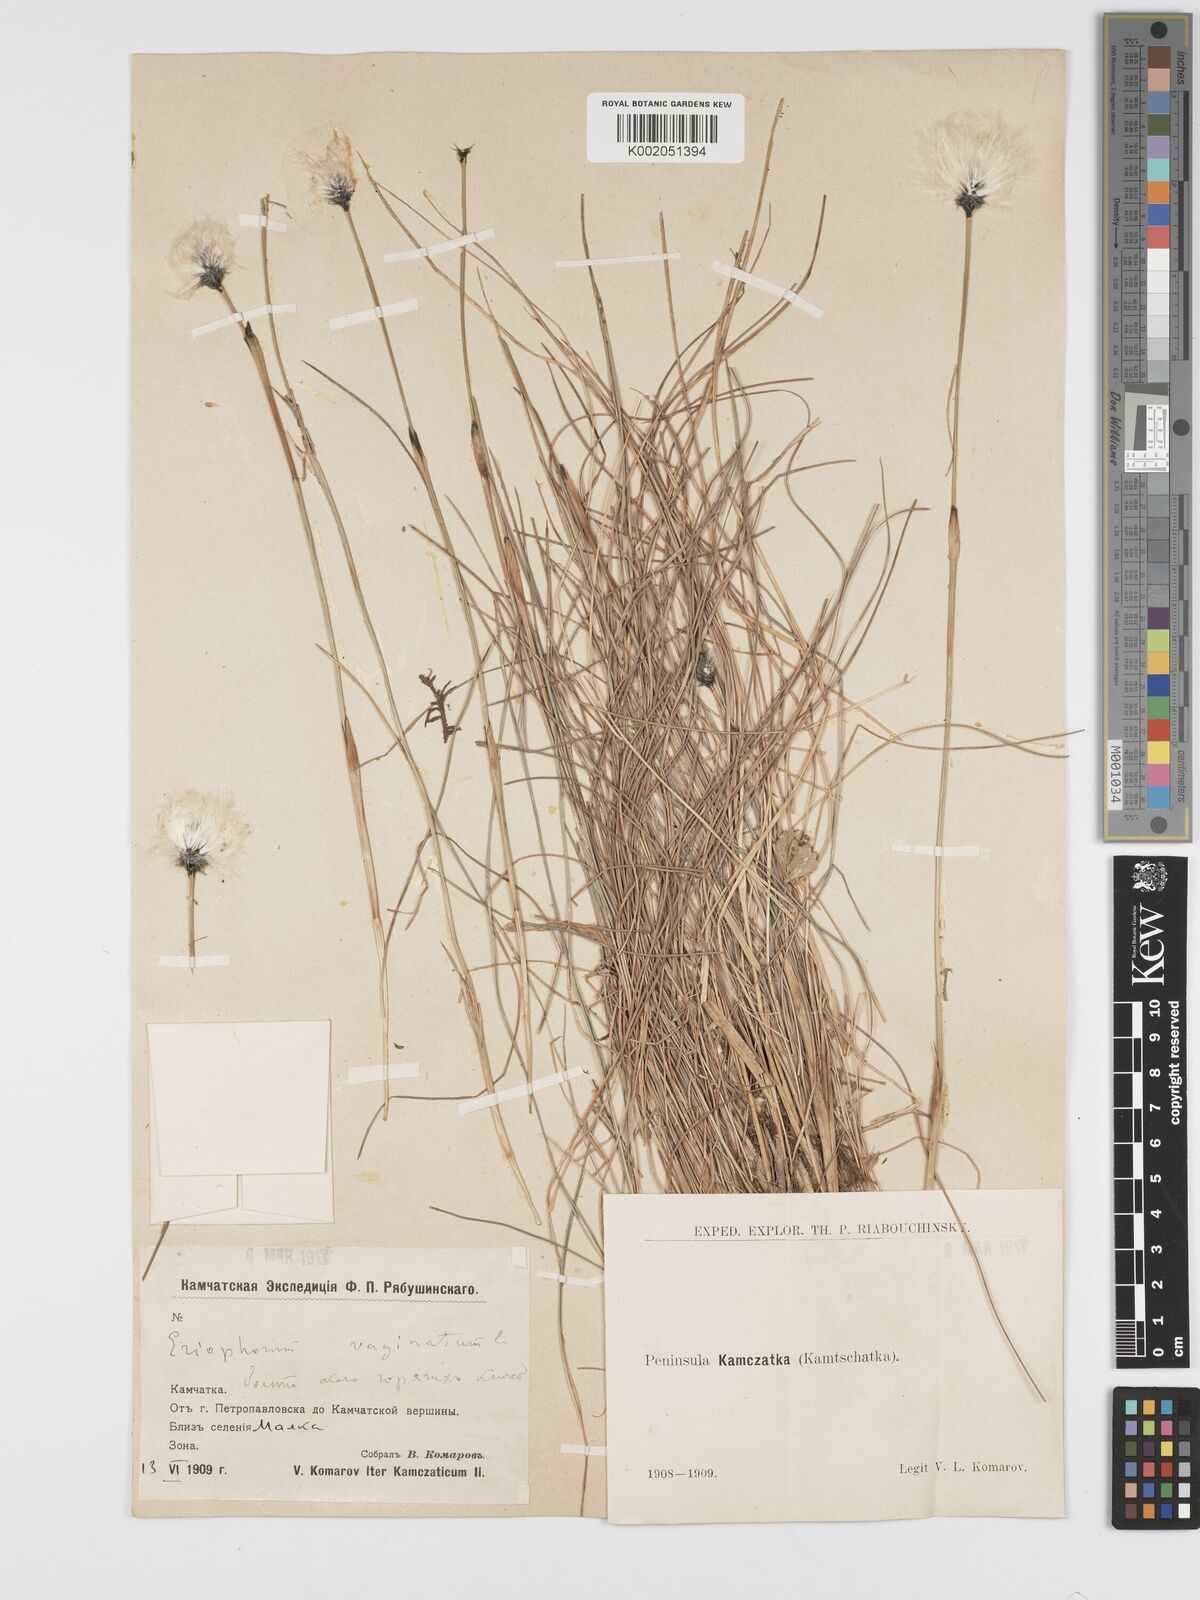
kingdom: Plantae
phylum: Tracheophyta
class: Liliopsida
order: Poales
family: Cyperaceae
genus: Eriophorum
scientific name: Eriophorum vaginatum
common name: Hare's-tail cottongrass
